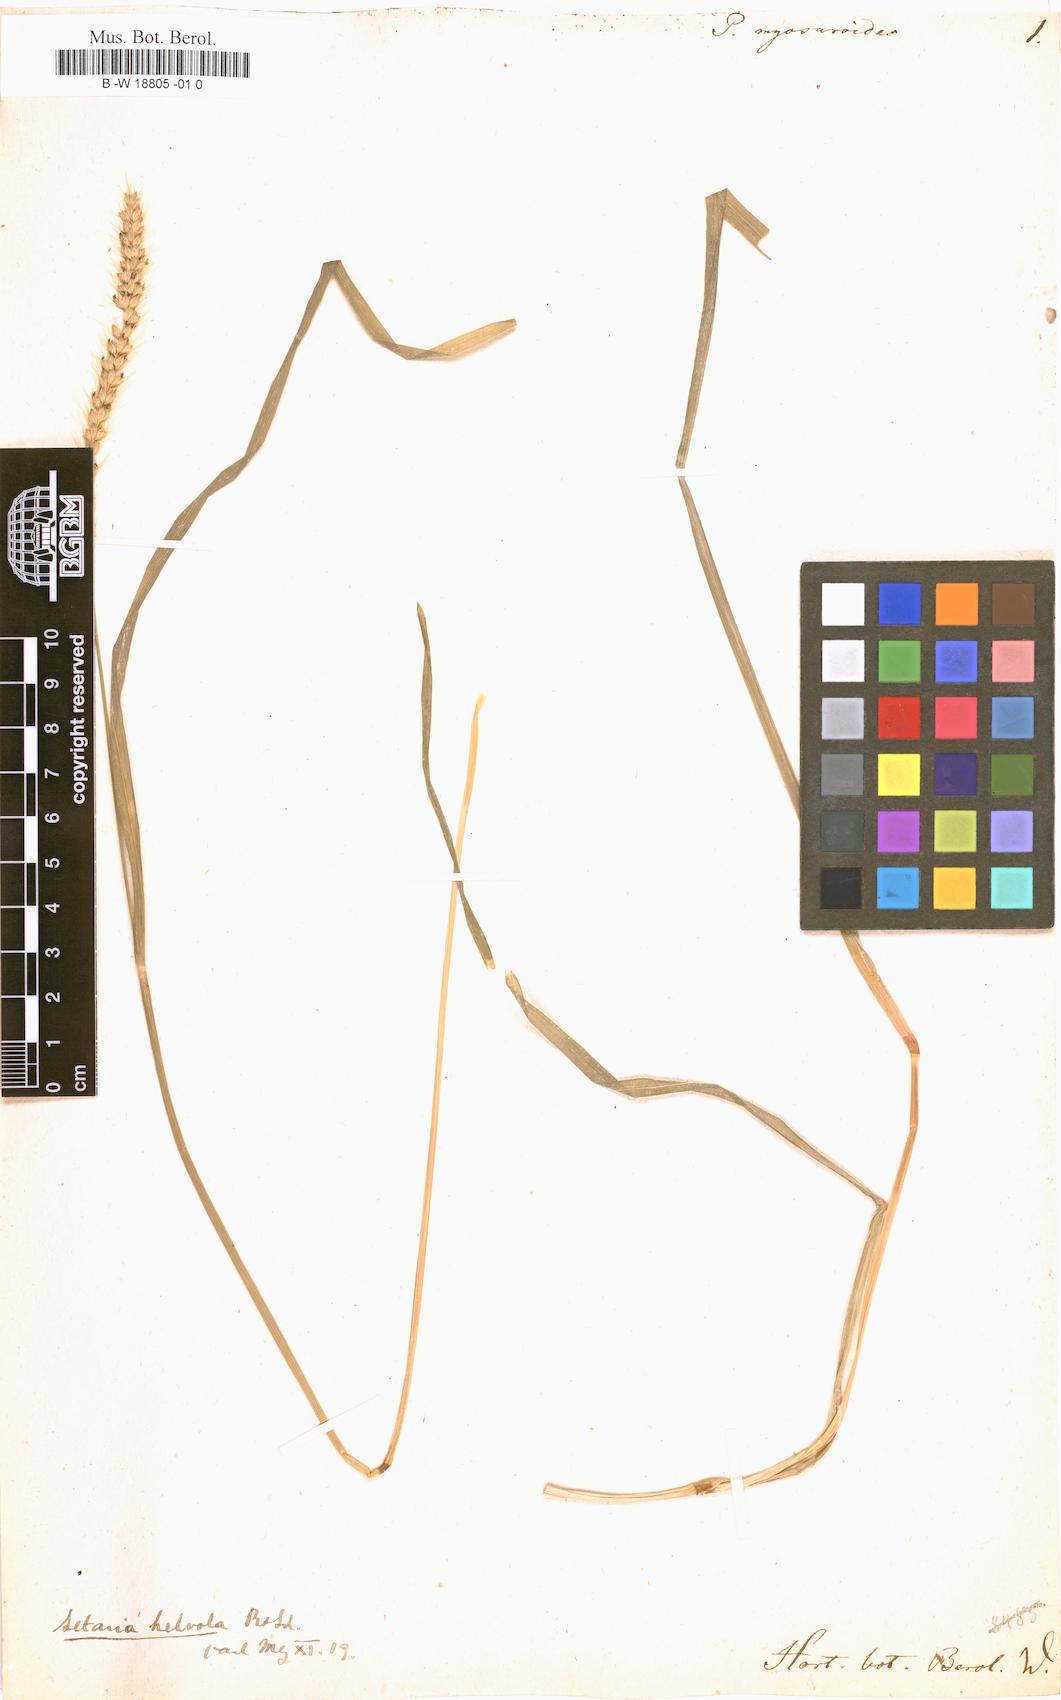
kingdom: Plantae
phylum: Tracheophyta
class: Liliopsida
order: Poales
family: Poaceae
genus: Sacciolepis
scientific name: Sacciolepis myosuroides
